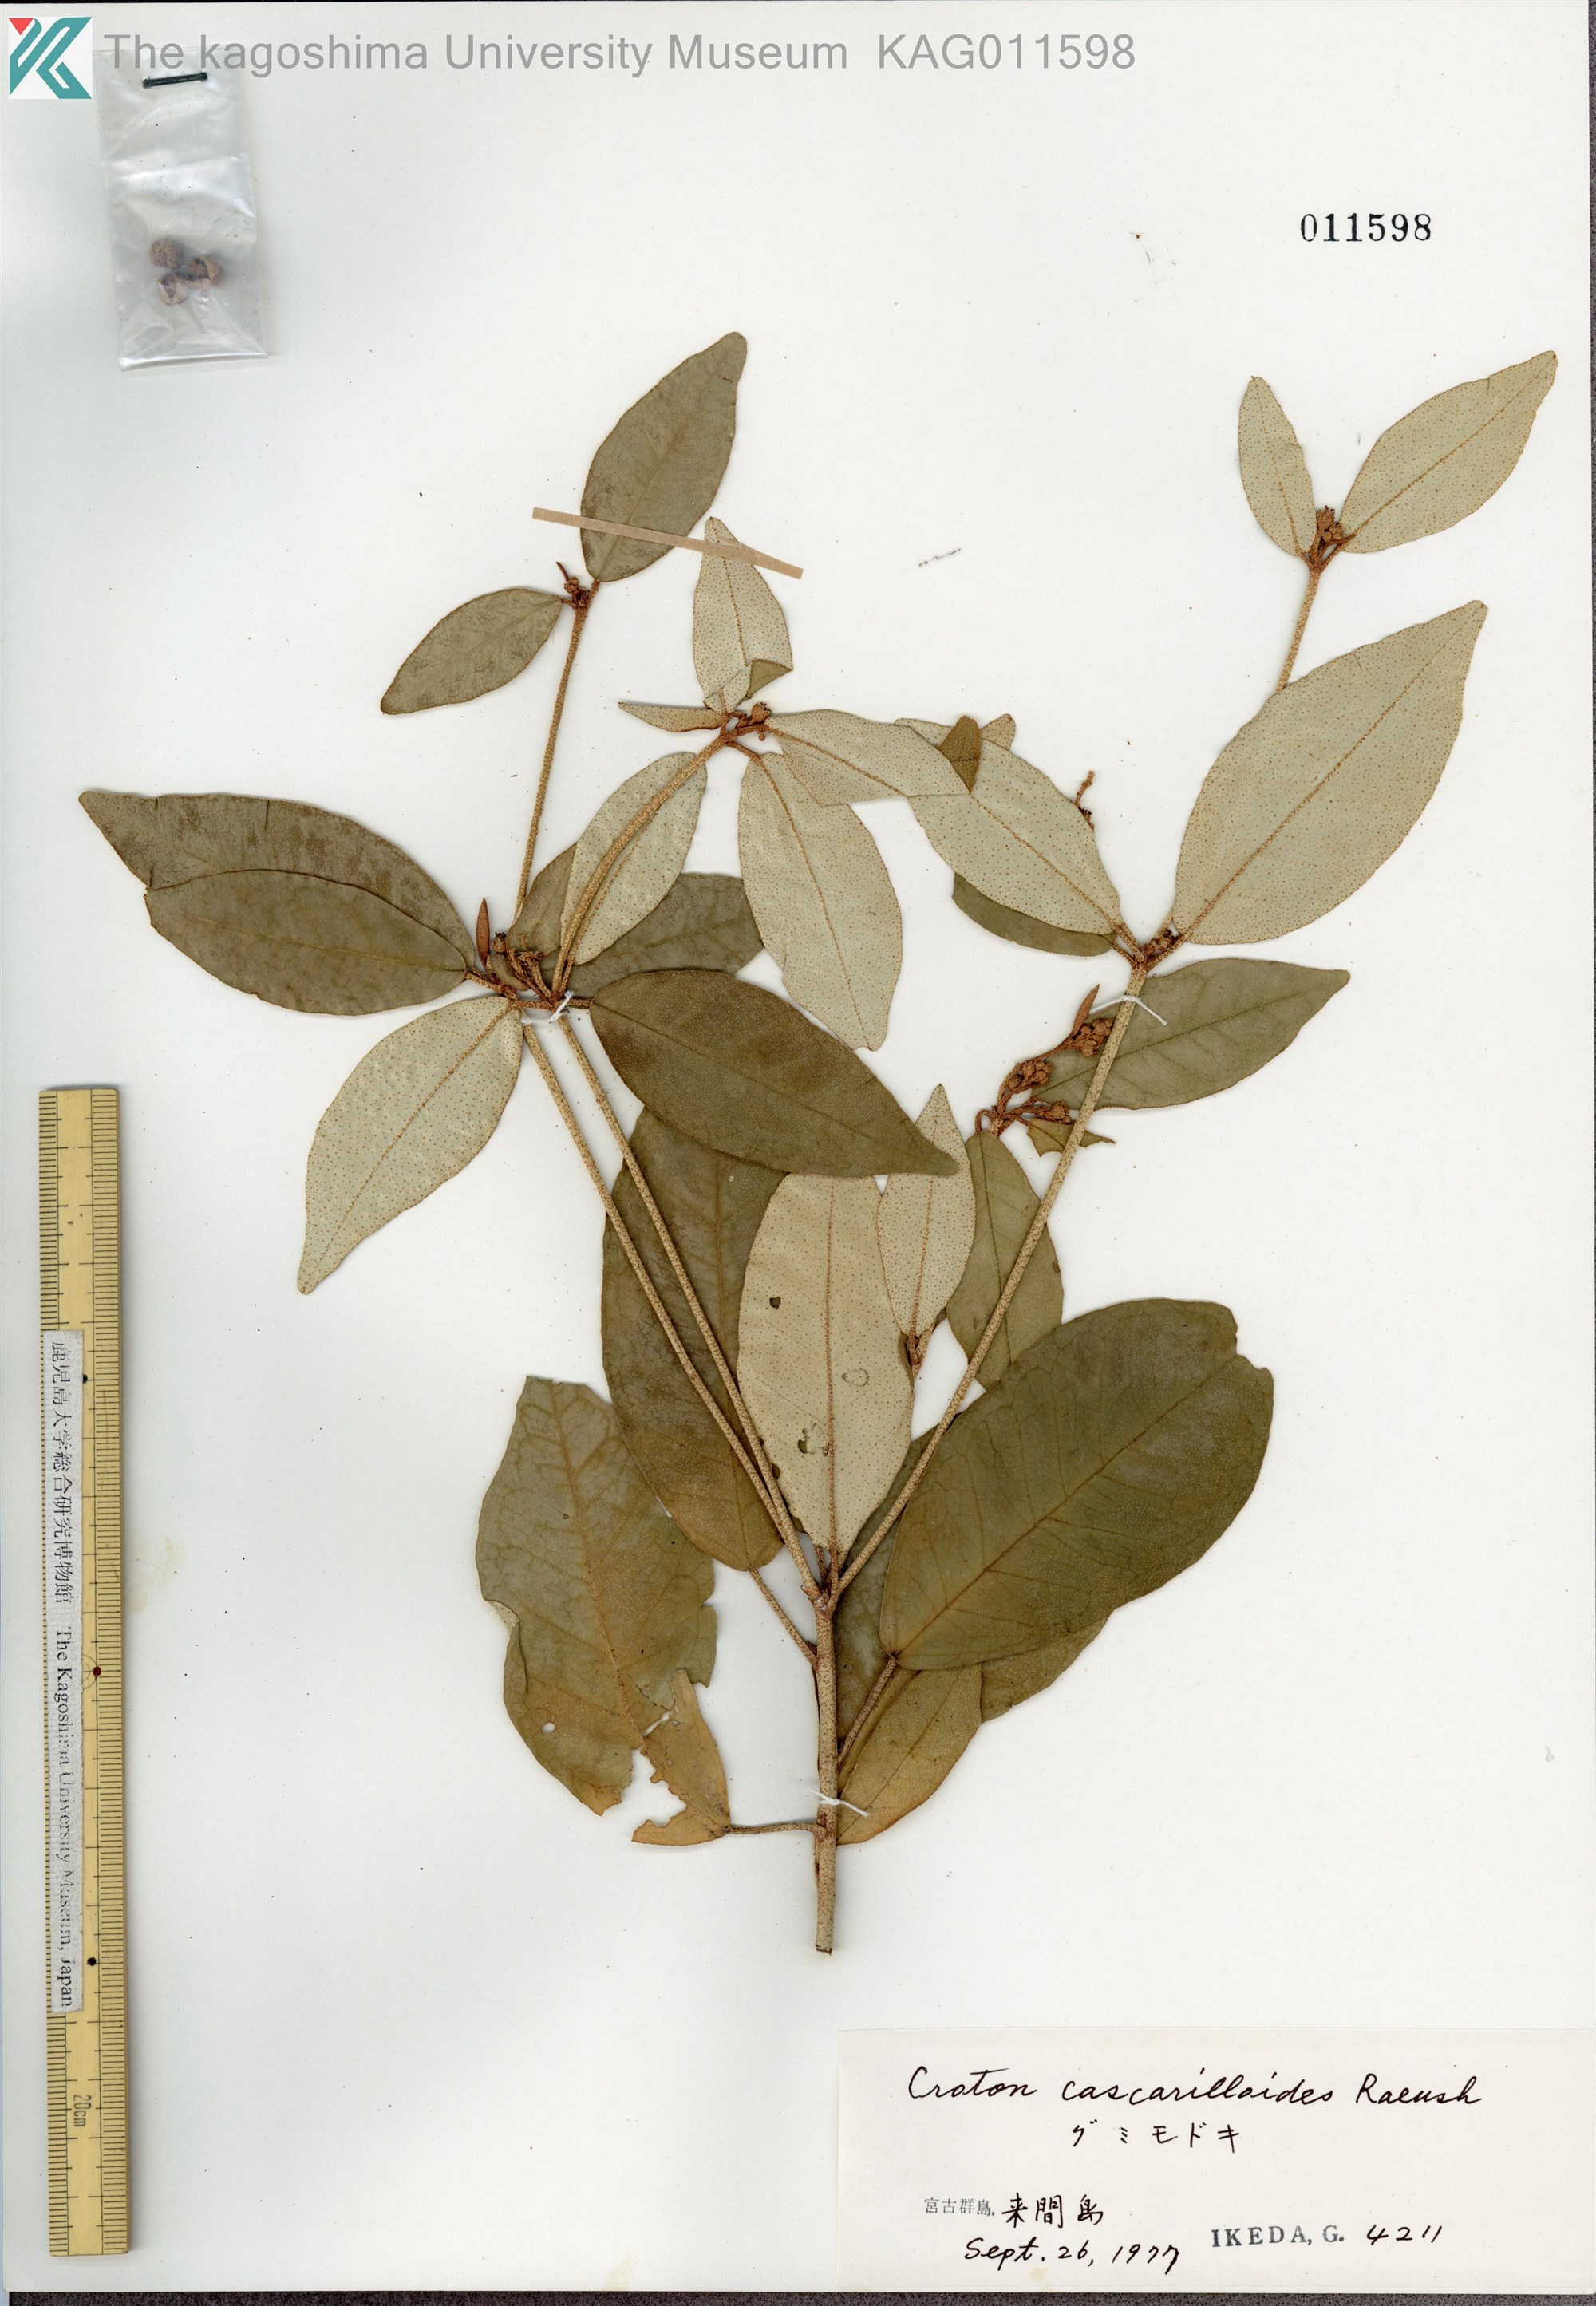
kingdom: Plantae
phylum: Tracheophyta
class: Magnoliopsida
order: Malpighiales
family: Euphorbiaceae
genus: Croton
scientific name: Croton cascarilloides
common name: グミモドキ
